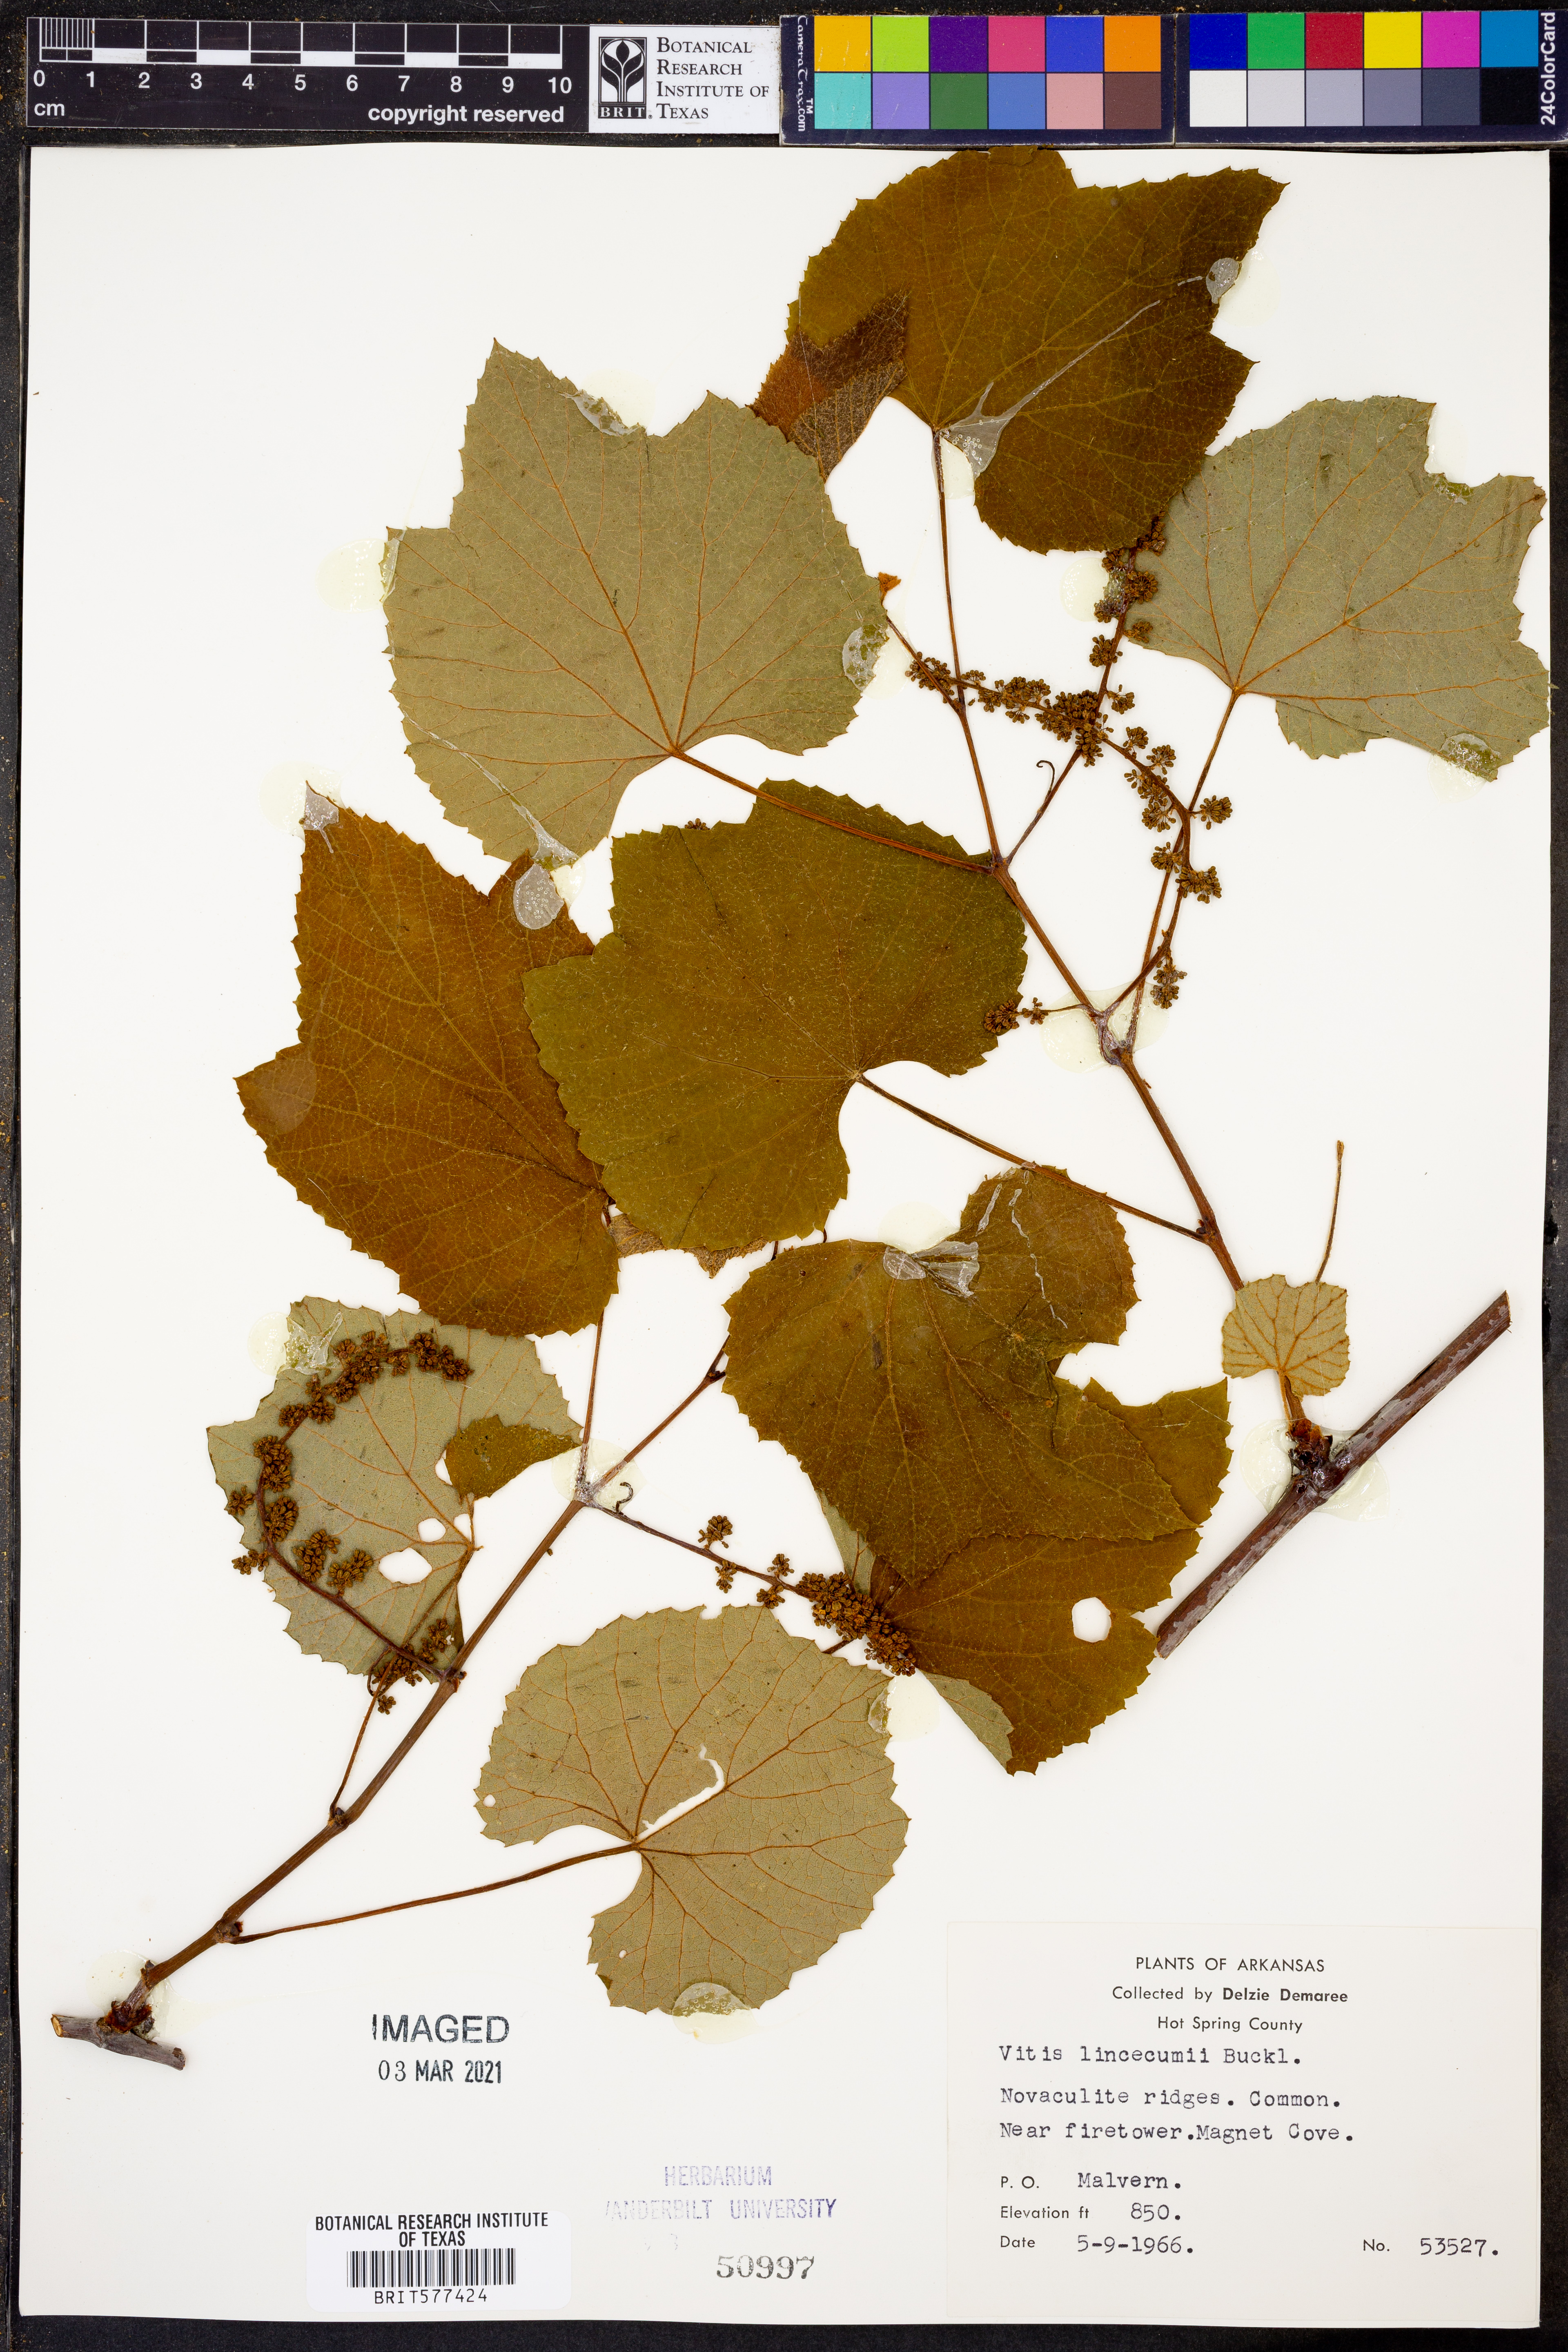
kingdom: Plantae
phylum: Tracheophyta
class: Magnoliopsida
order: Vitales
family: Vitaceae
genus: Vitis
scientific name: Vitis aestivalis
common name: Pigeon grape
